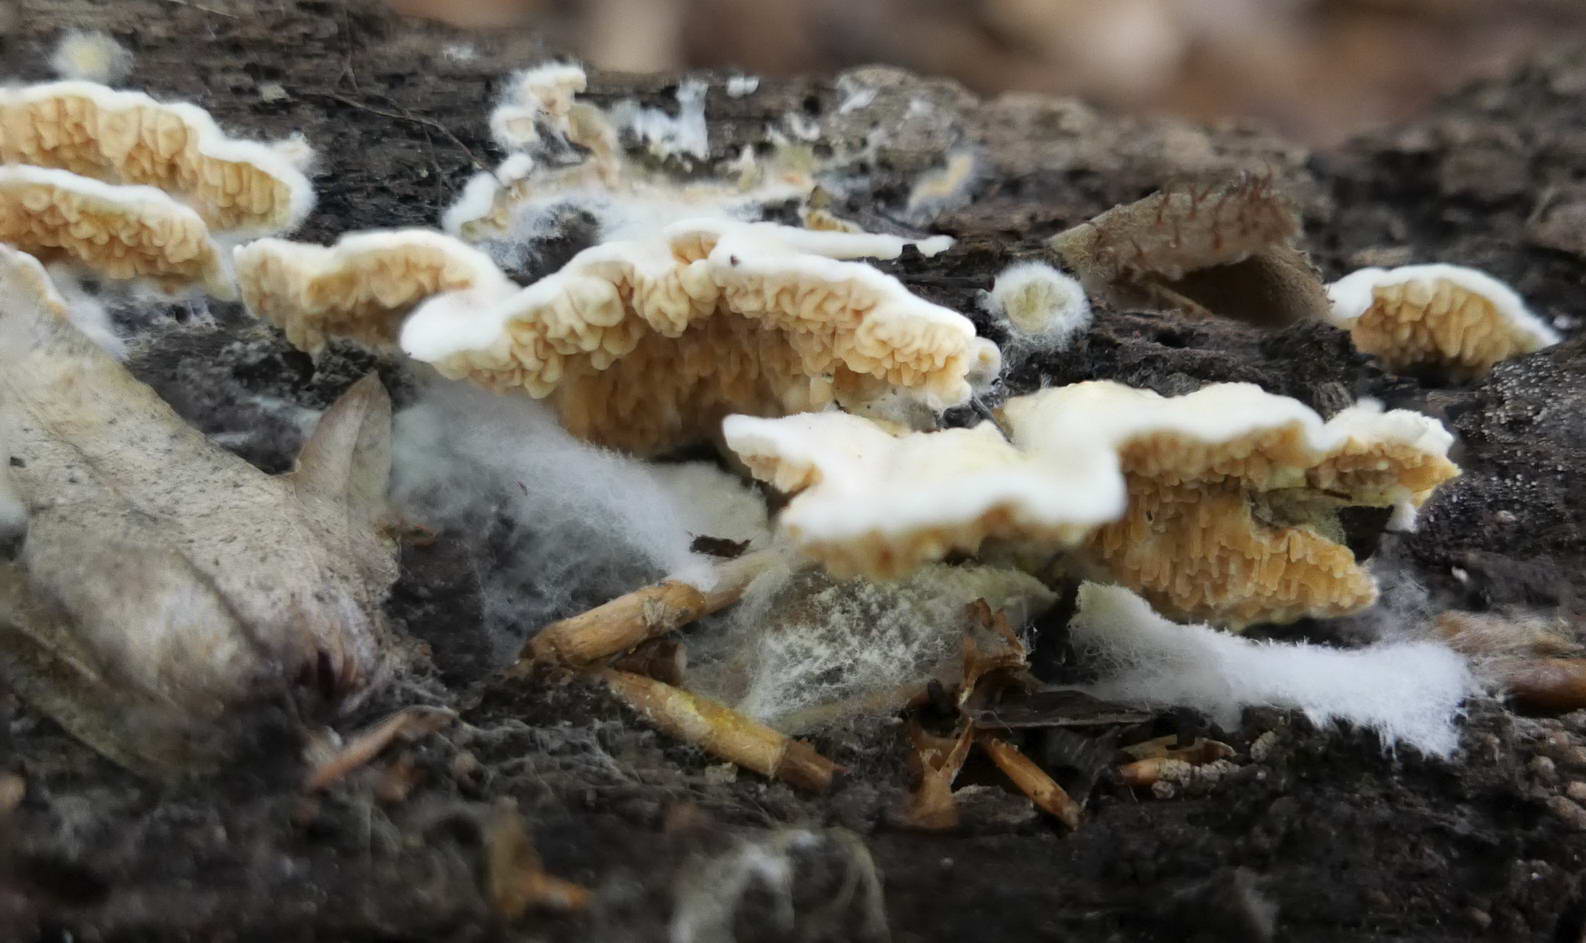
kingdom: Fungi
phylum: Basidiomycota
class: Agaricomycetes
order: Boletales
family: Hygrophoropsidaceae
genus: Leucogyrophana
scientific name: Leucogyrophana mollusca
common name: blød hussvamp
